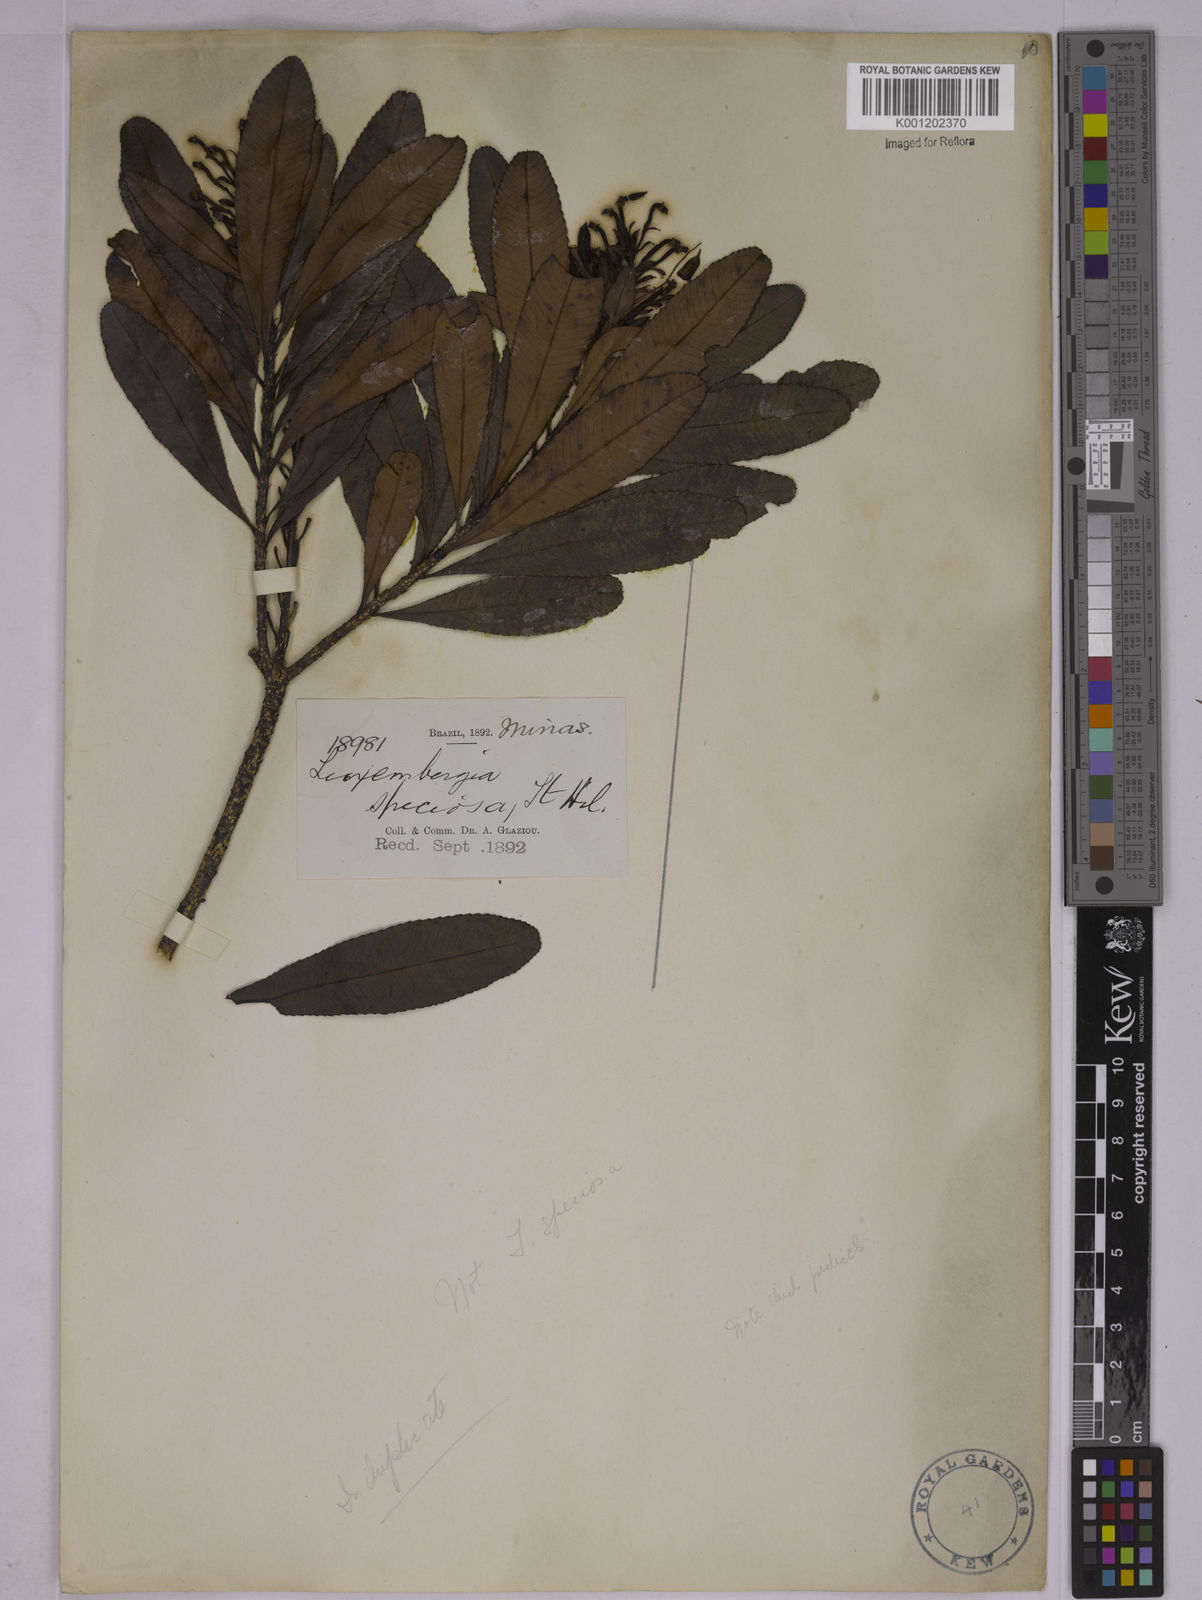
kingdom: Plantae
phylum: Tracheophyta
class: Magnoliopsida
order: Malpighiales
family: Ochnaceae
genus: Luxemburgia
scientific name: Luxemburgia speciosa
